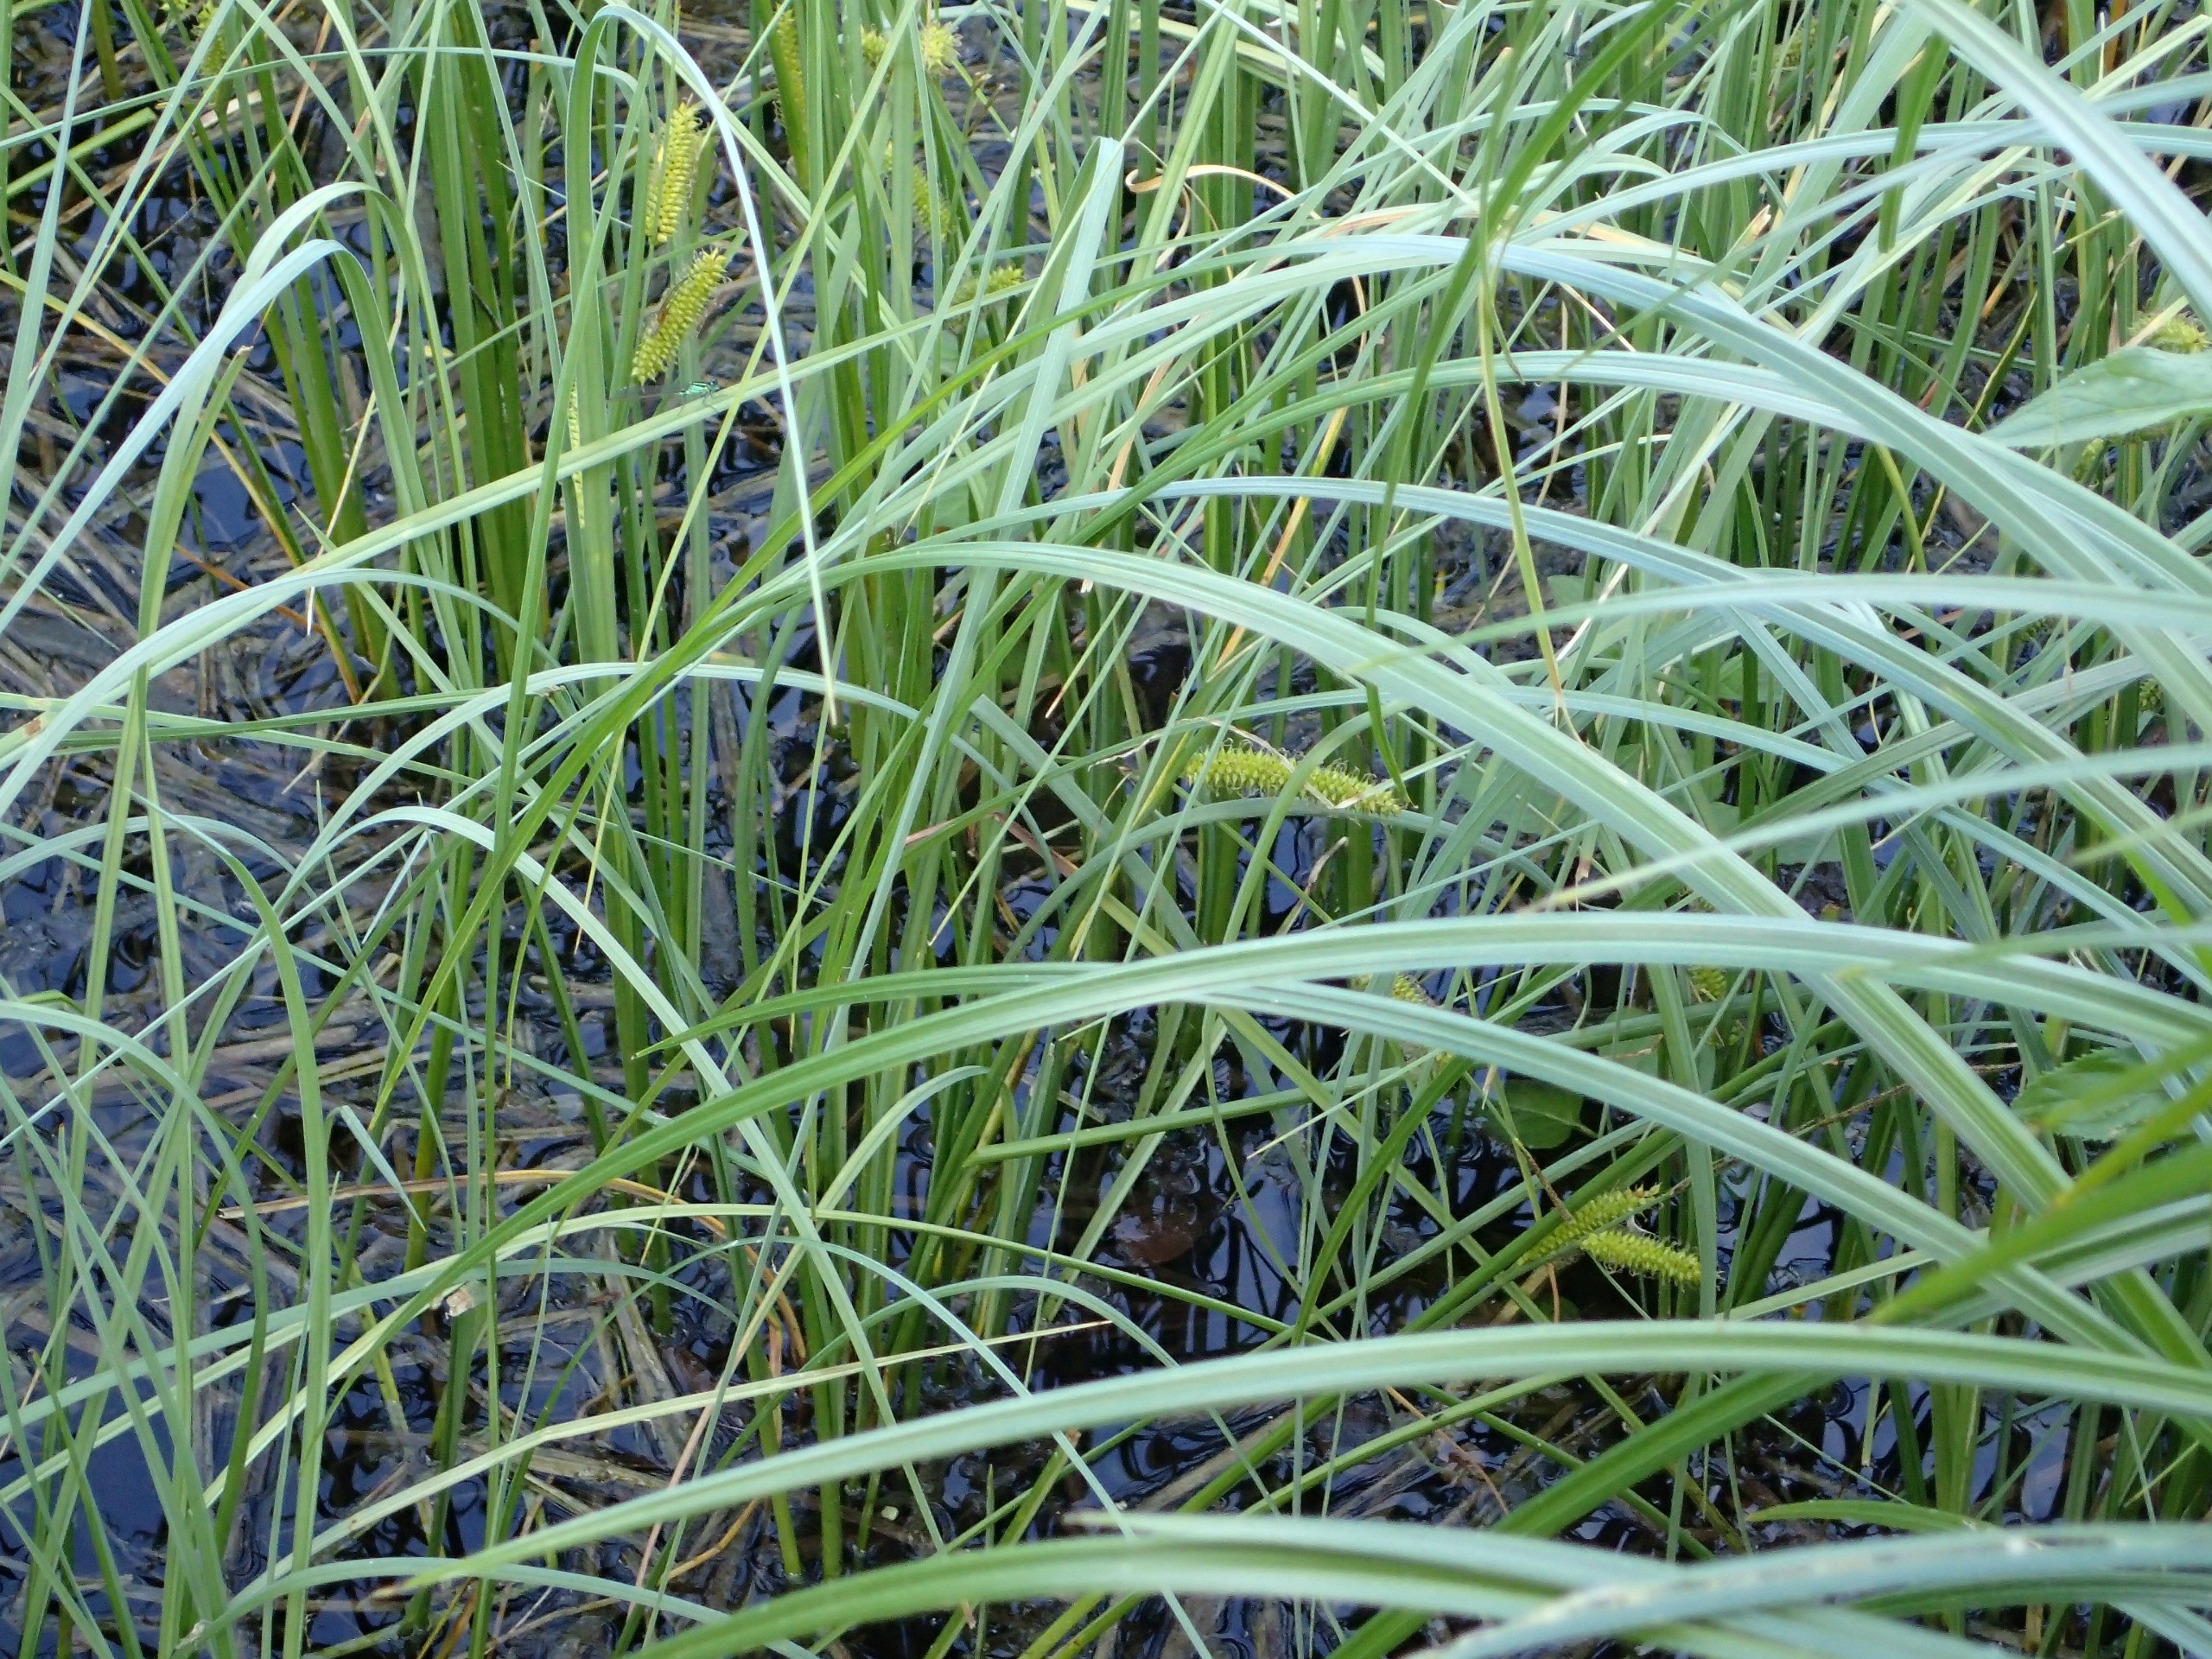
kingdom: Plantae
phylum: Tracheophyta
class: Liliopsida
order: Poales
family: Cyperaceae
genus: Carex
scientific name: Carex rostrata
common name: Næb-star
